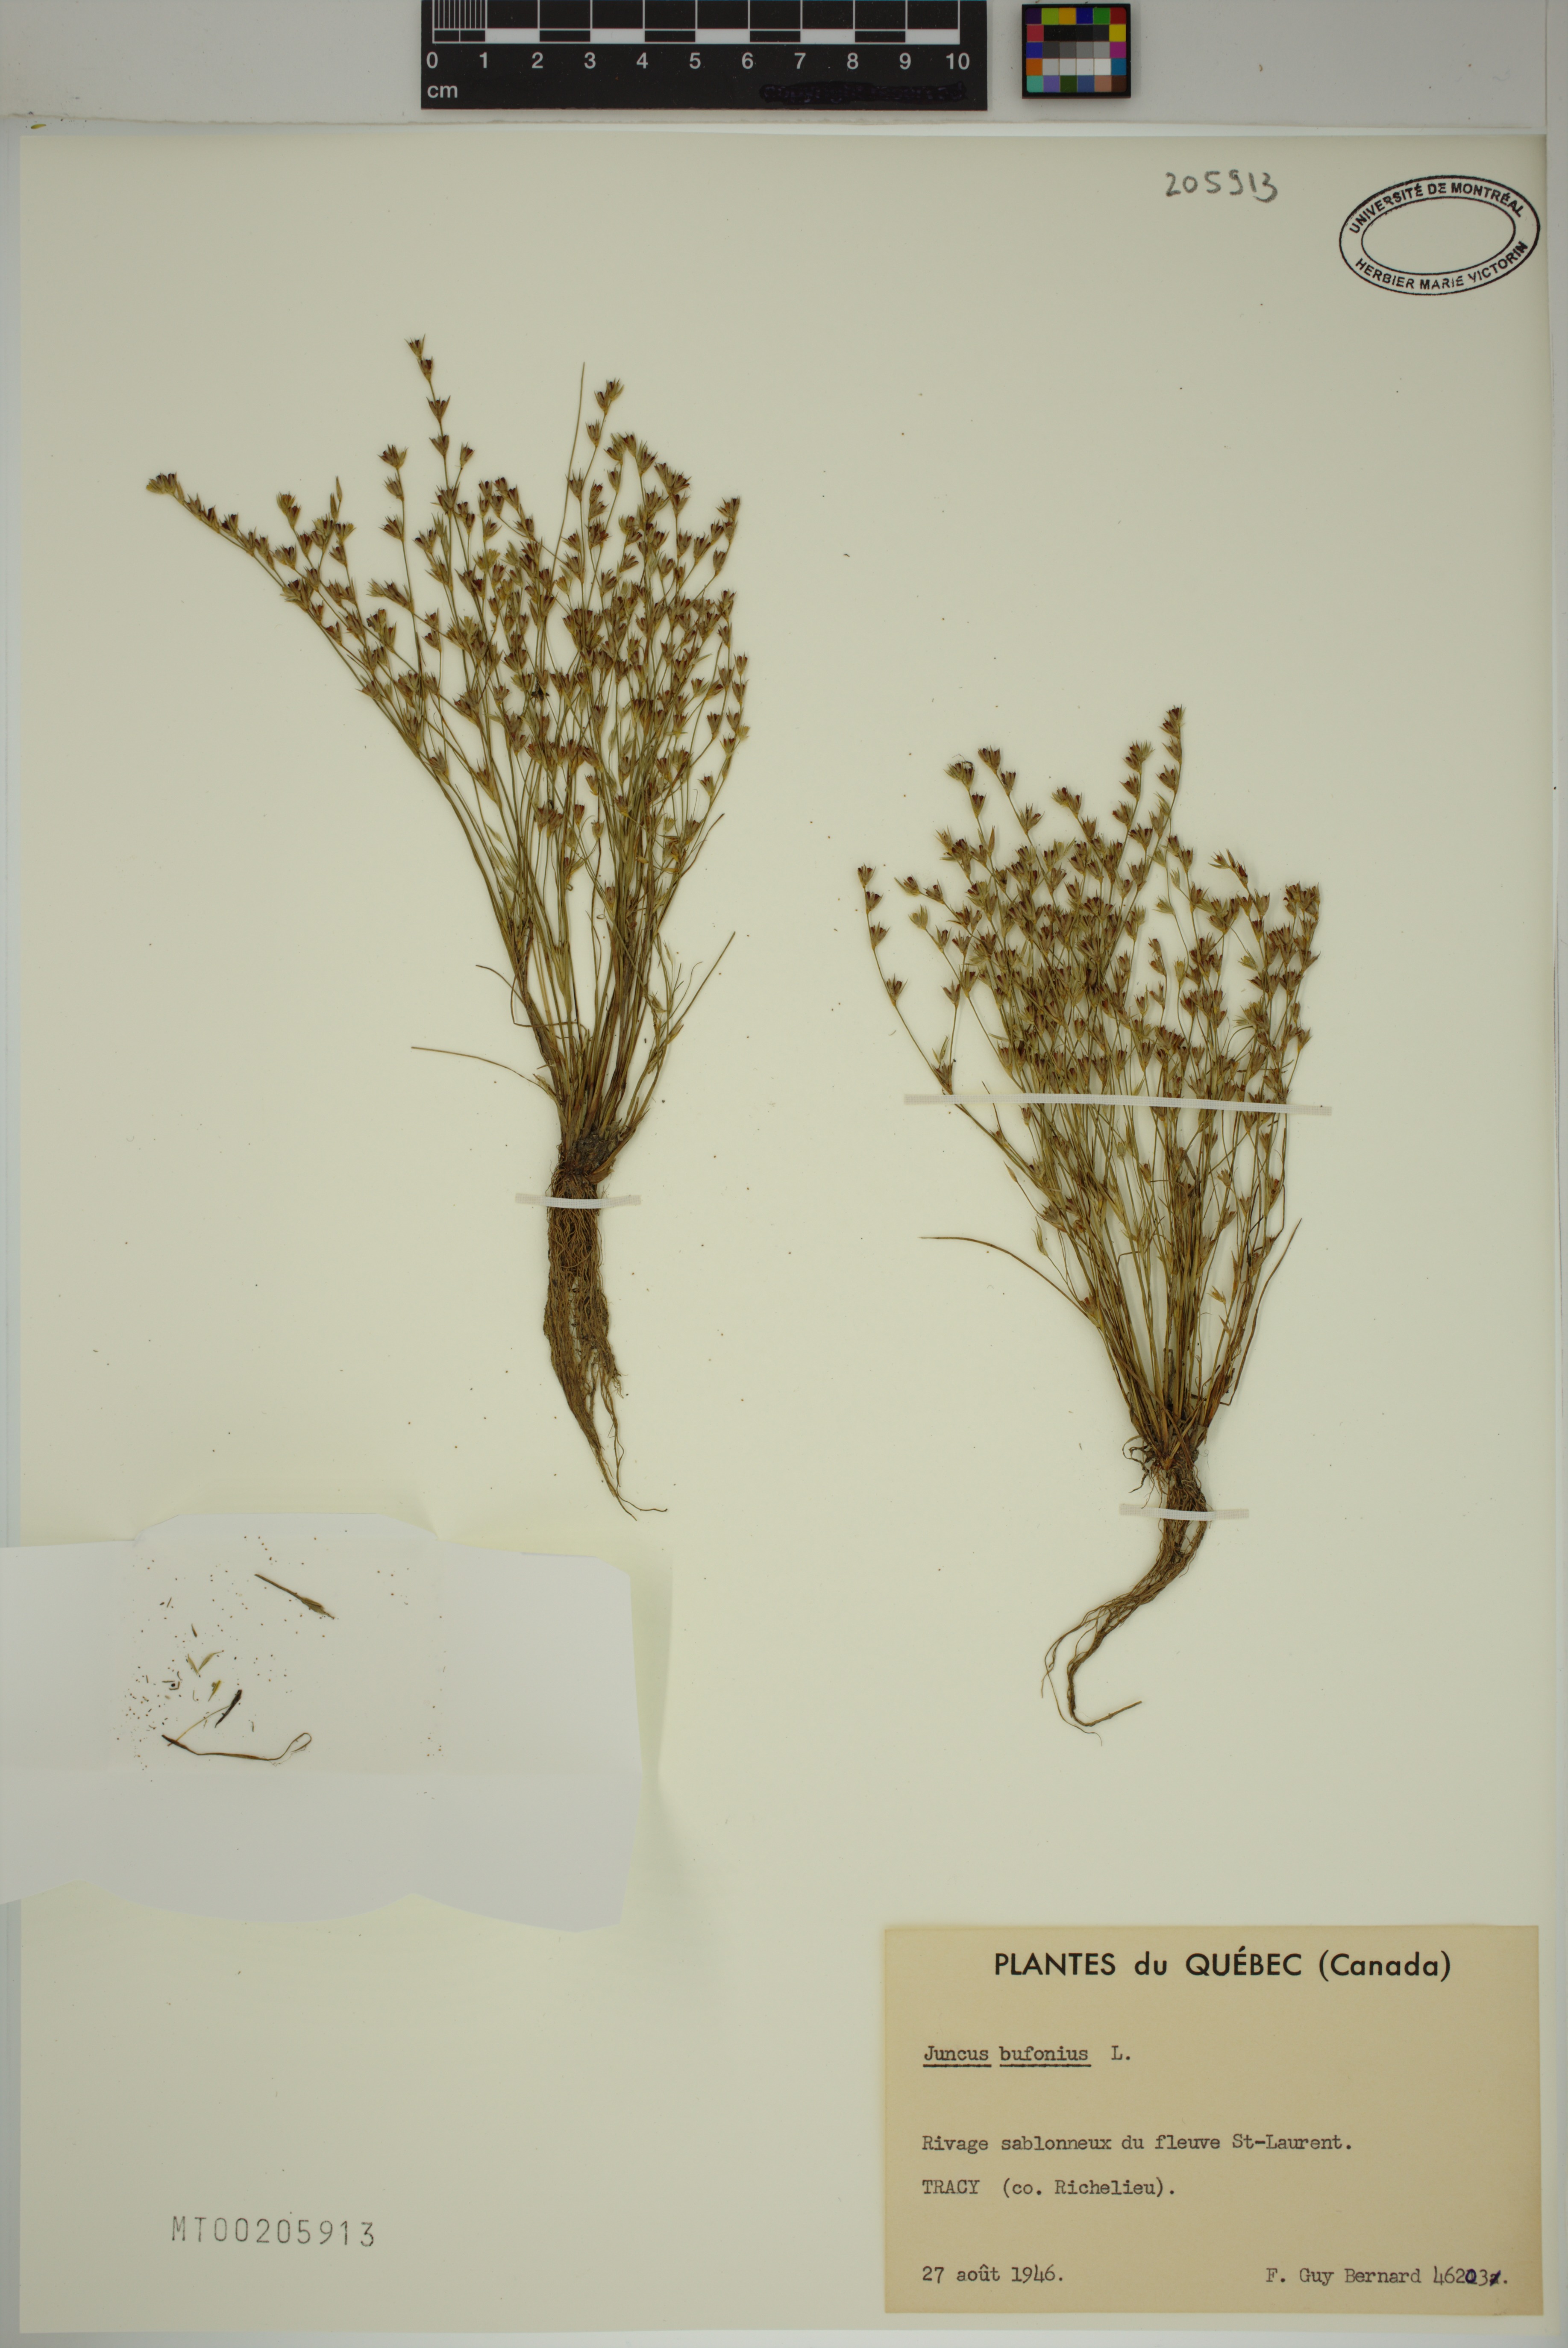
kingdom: Plantae
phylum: Tracheophyta
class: Liliopsida
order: Poales
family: Juncaceae
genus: Juncus
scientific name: Juncus bufonius
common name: Toad rush
